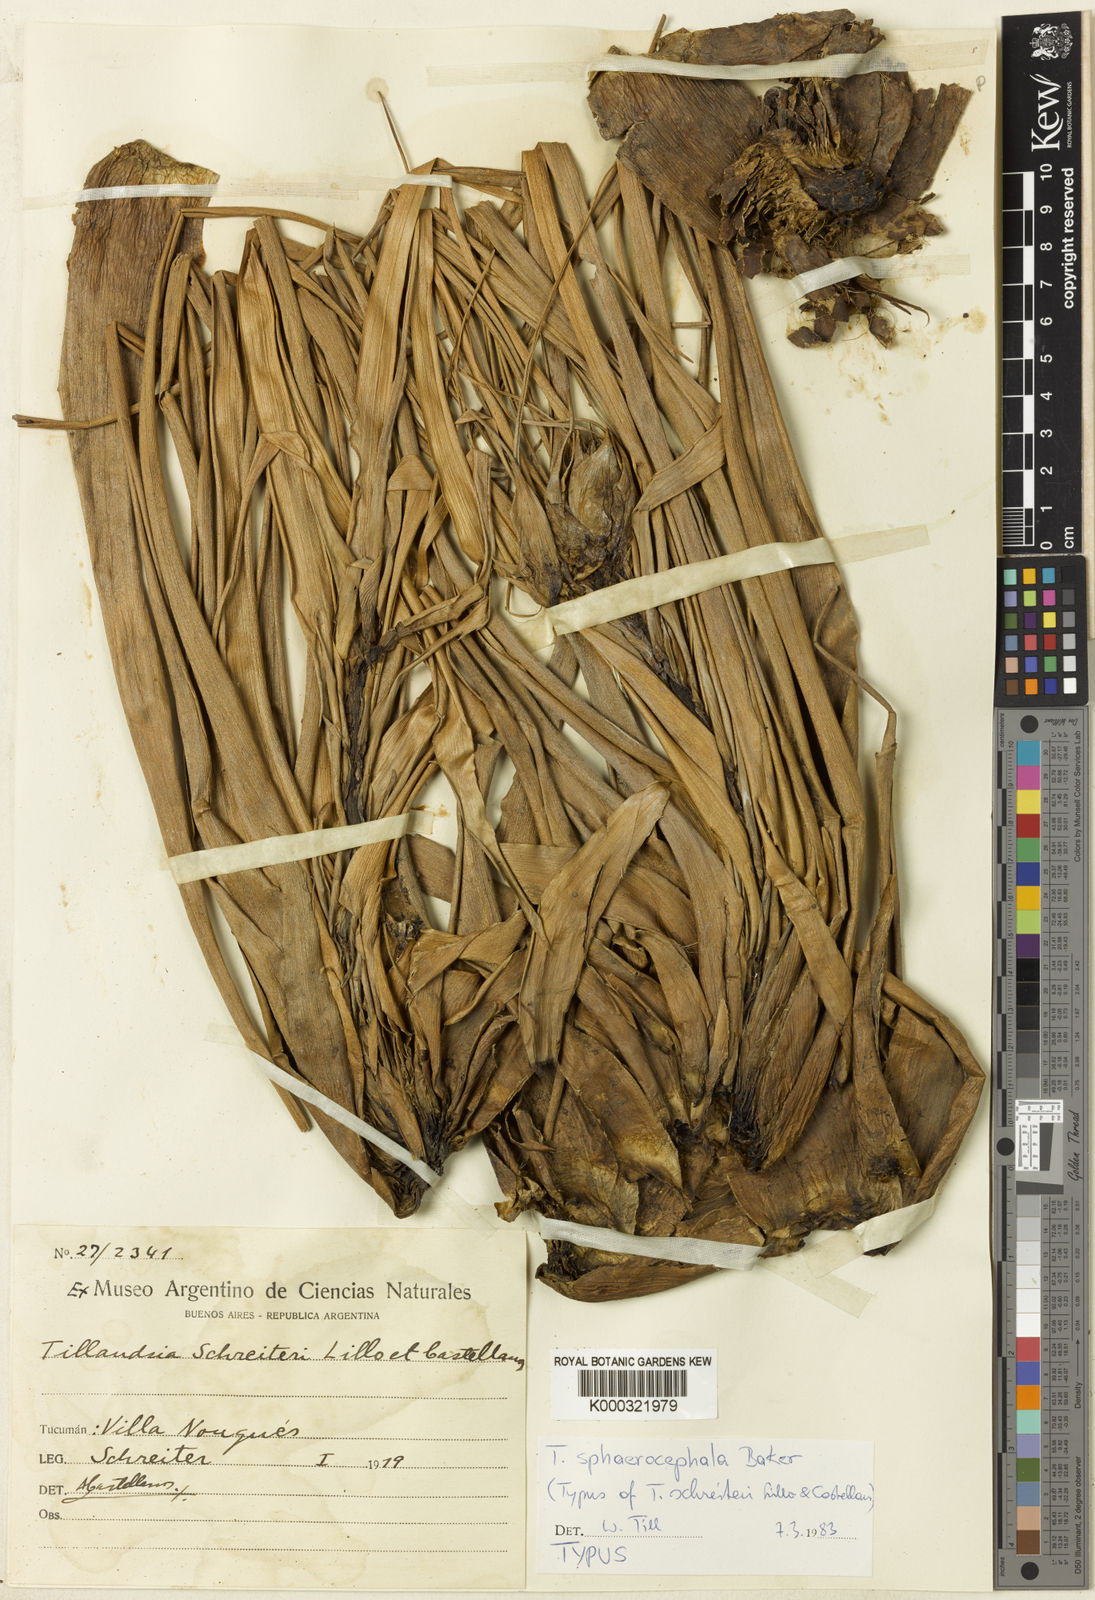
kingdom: Plantae
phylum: Tracheophyta
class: Liliopsida
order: Poales
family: Bromeliaceae
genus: Tillandsia
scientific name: Tillandsia sphaerocephala
